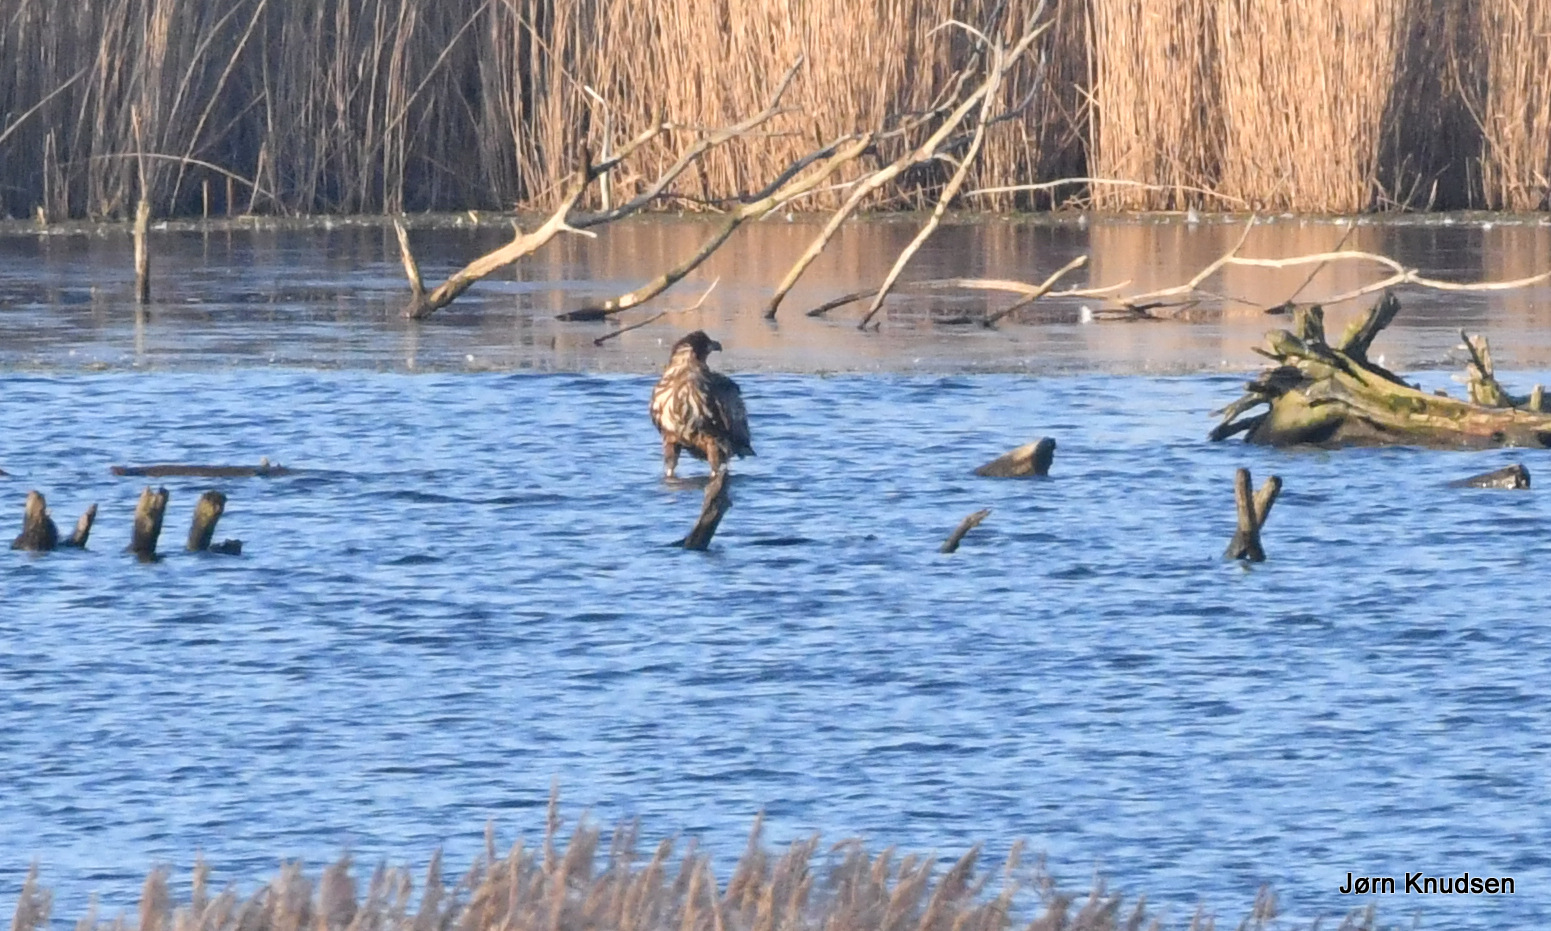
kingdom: Animalia
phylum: Chordata
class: Aves
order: Accipitriformes
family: Accipitridae
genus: Haliaeetus
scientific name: Haliaeetus albicilla
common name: Havørn
